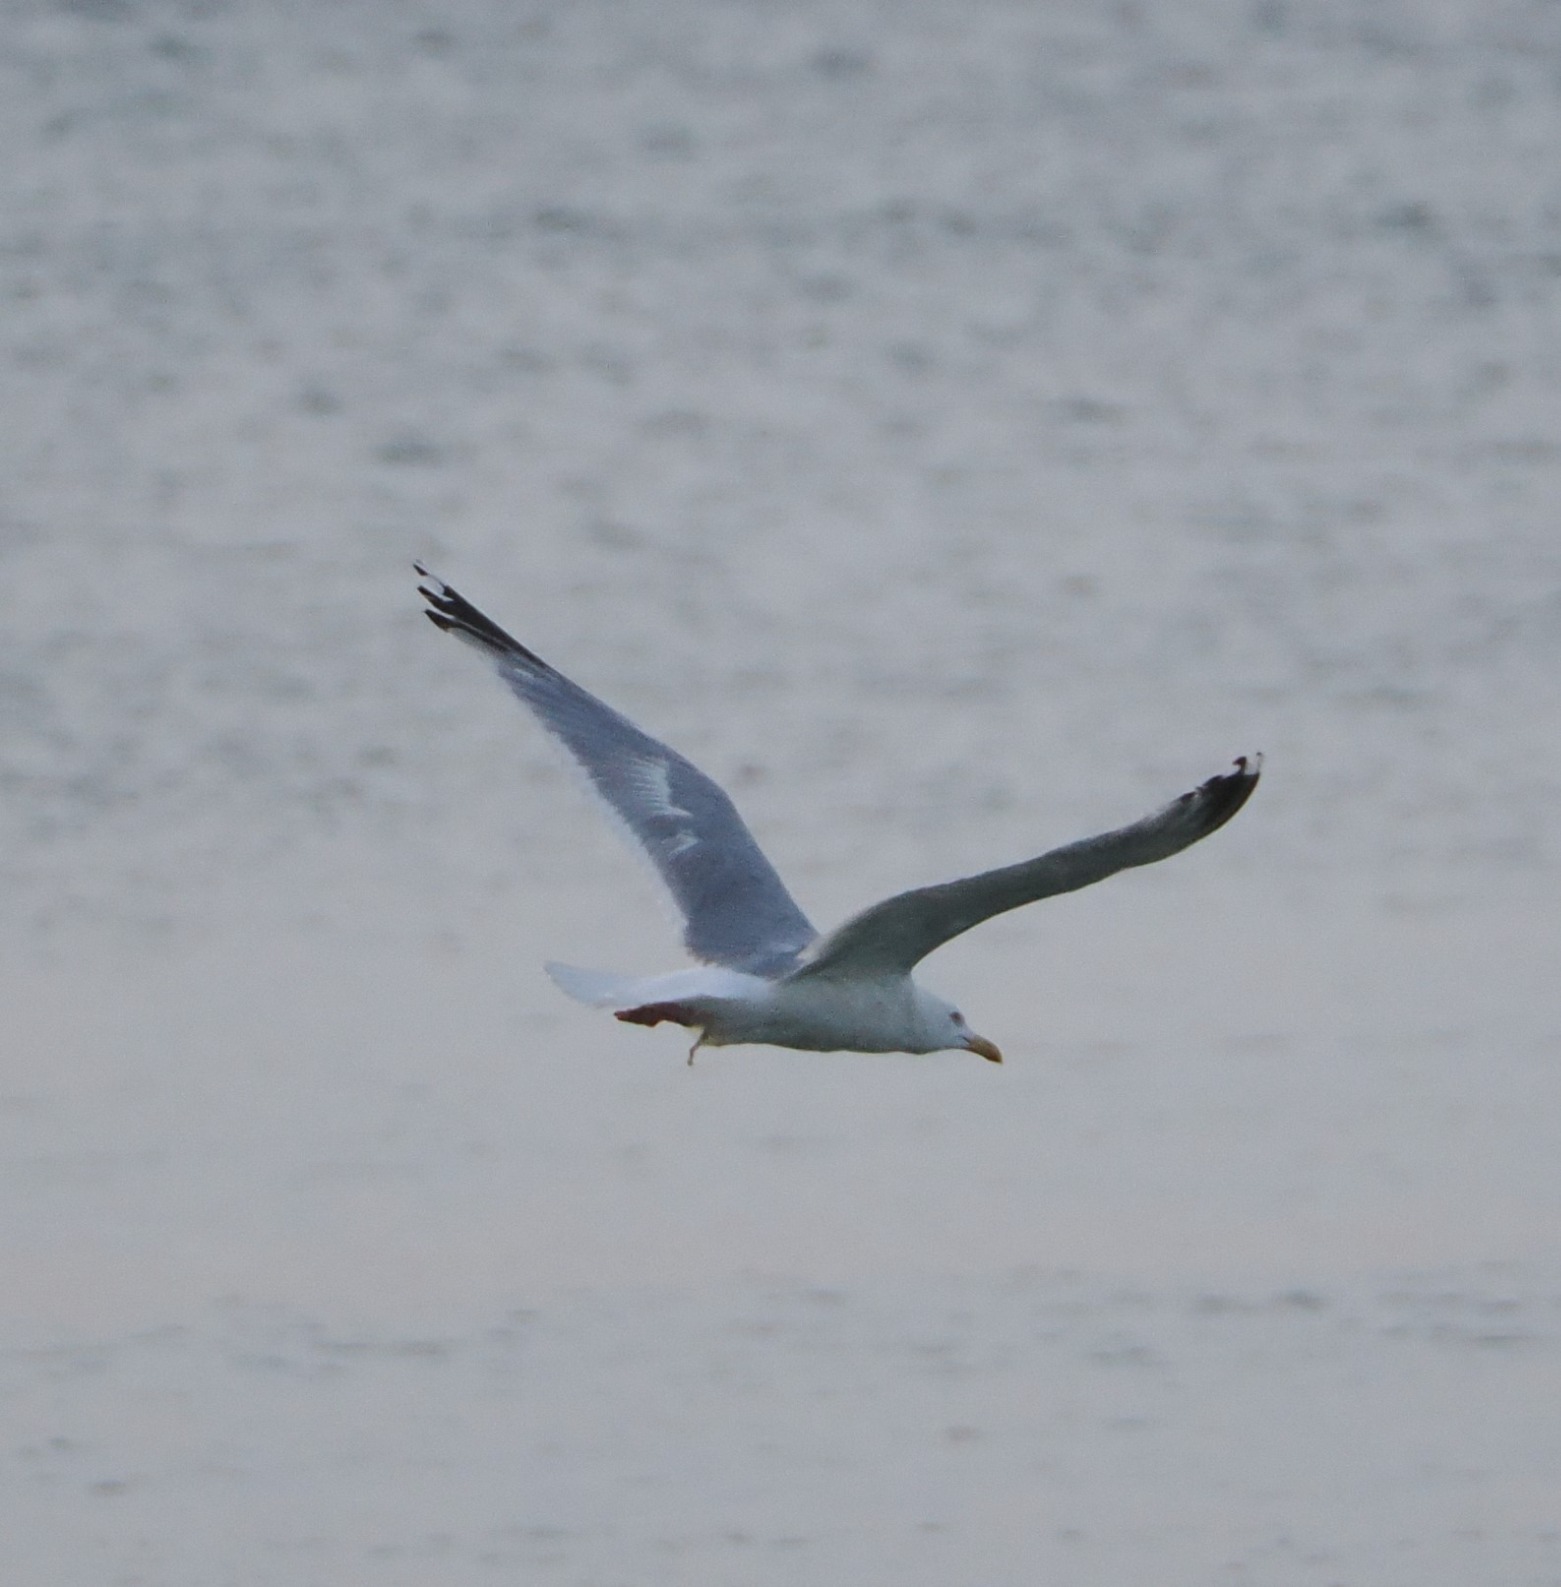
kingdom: Animalia
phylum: Chordata
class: Aves
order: Charadriiformes
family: Laridae
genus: Larus
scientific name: Larus argentatus
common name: Sølvmåge
